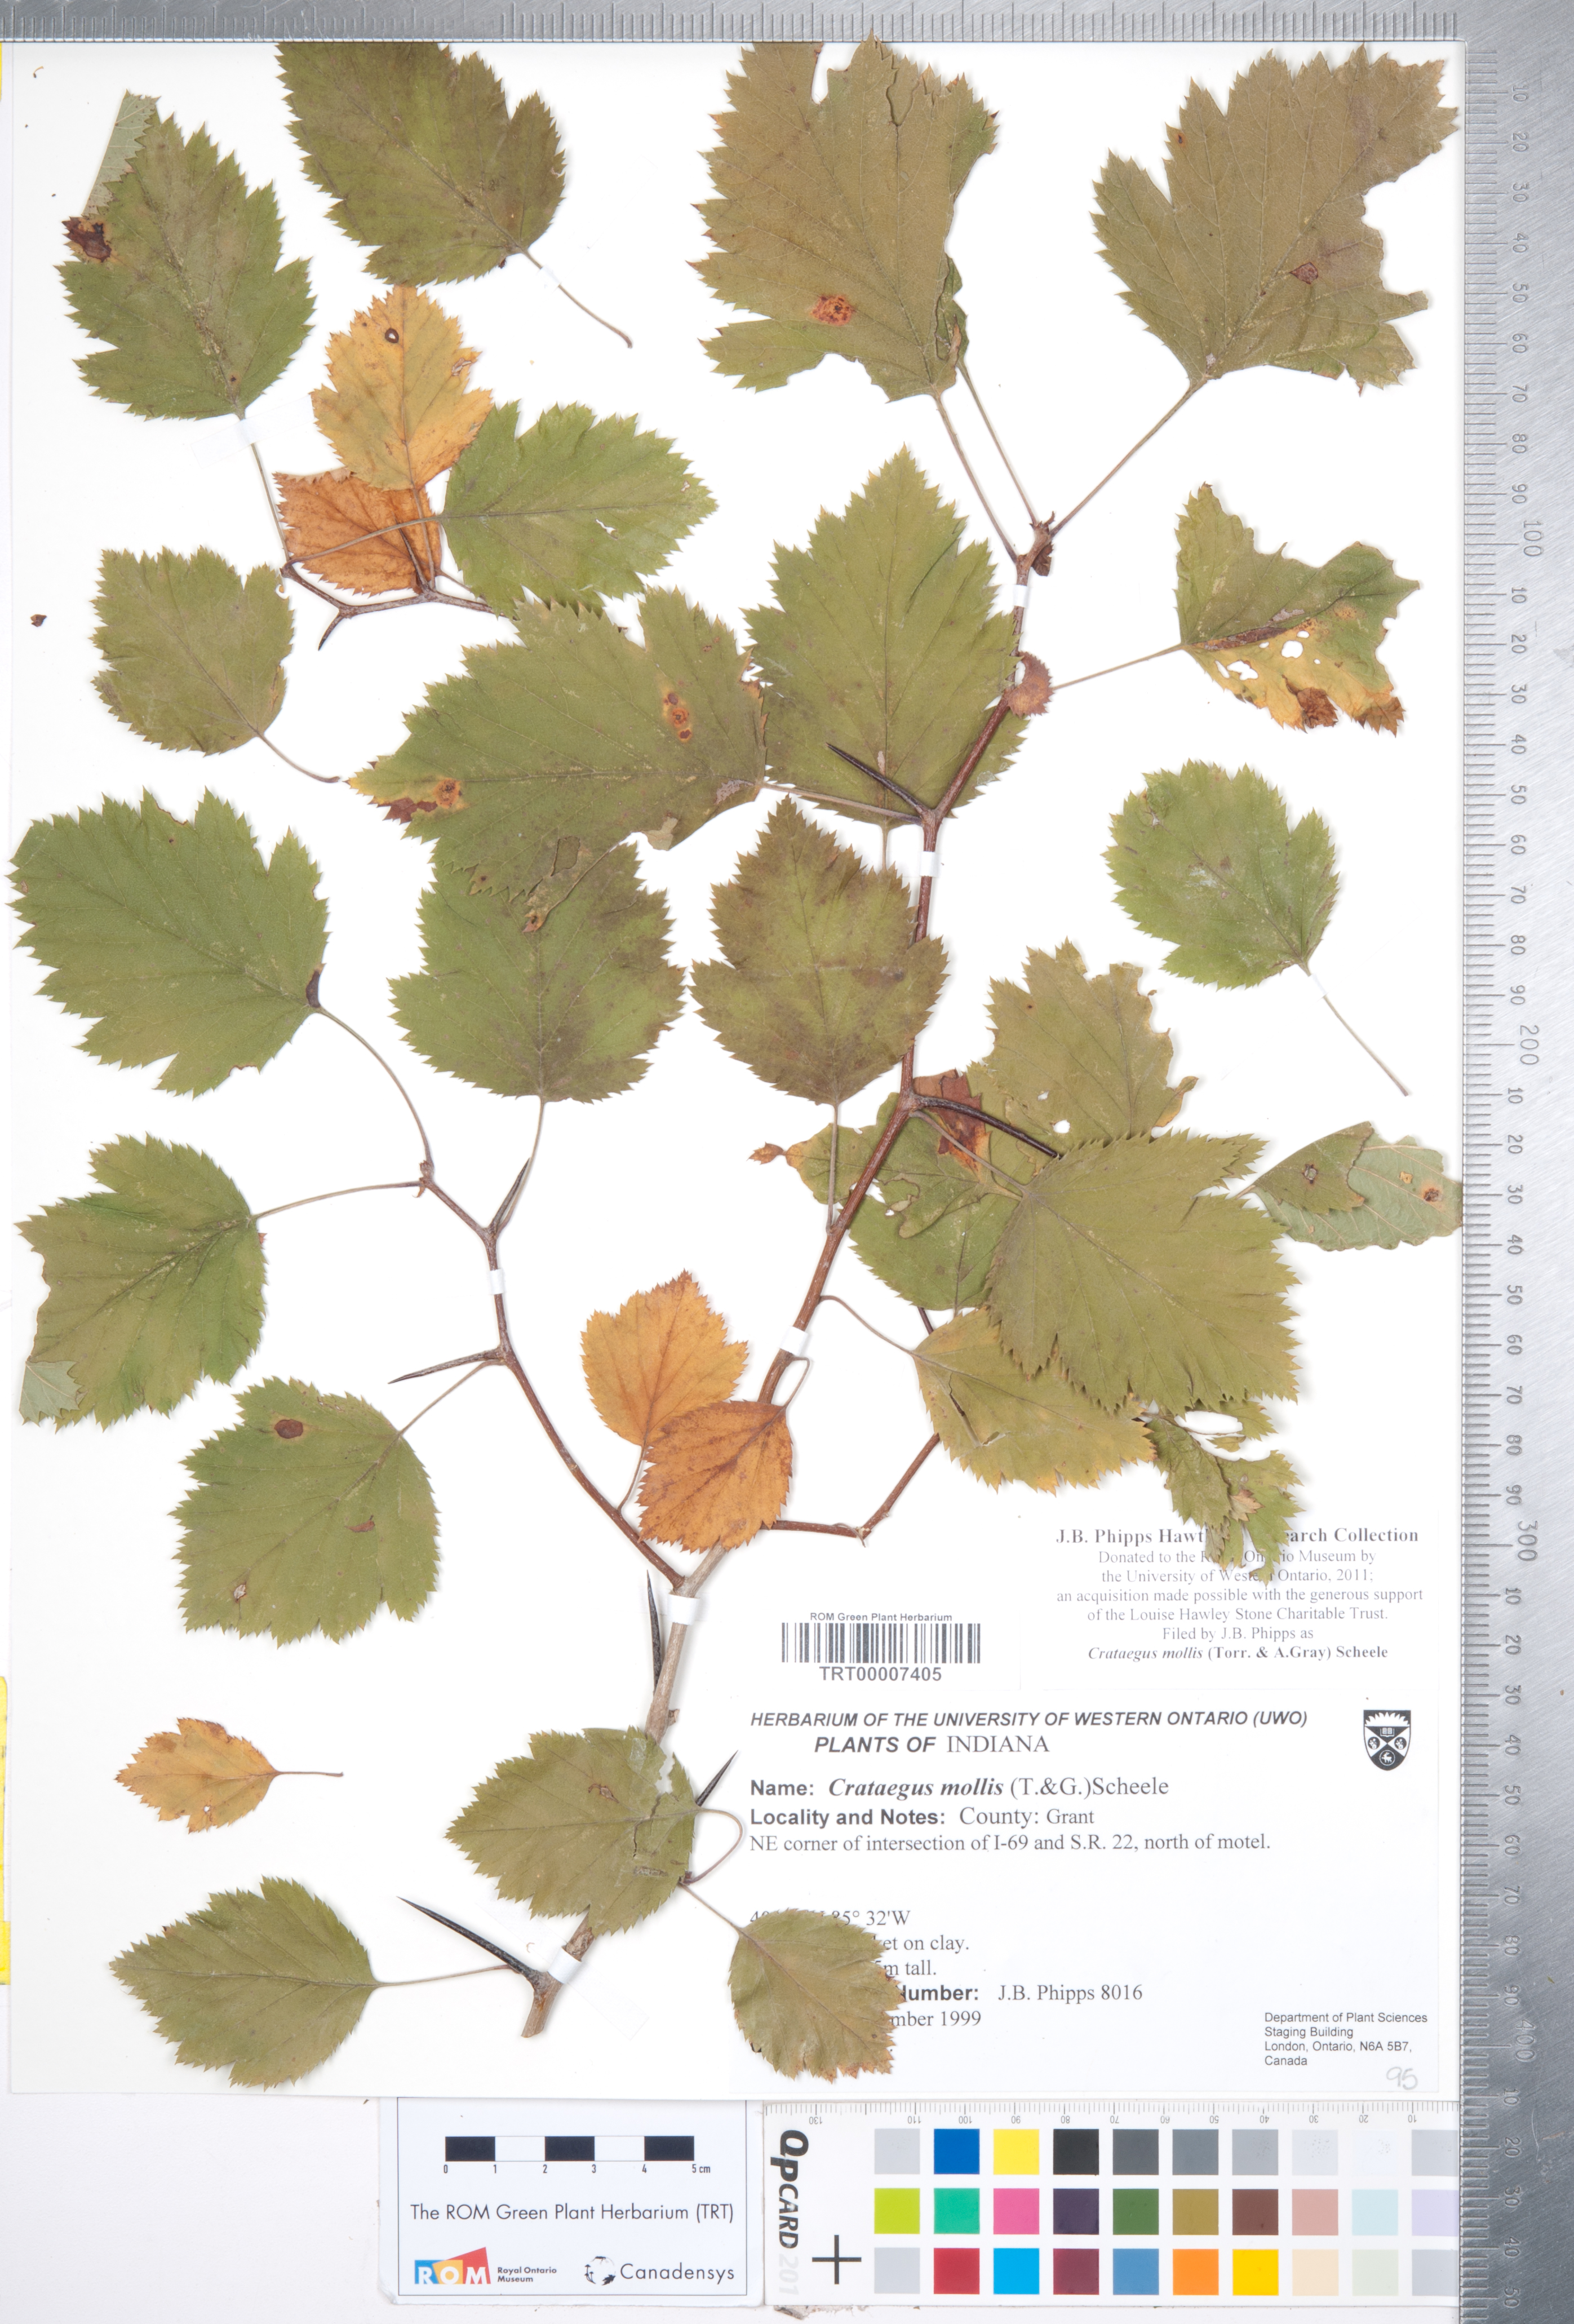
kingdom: Plantae
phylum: Tracheophyta
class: Magnoliopsida
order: Rosales
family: Rosaceae
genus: Crataegus
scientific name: Crataegus mollis
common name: Downy hawthorn
